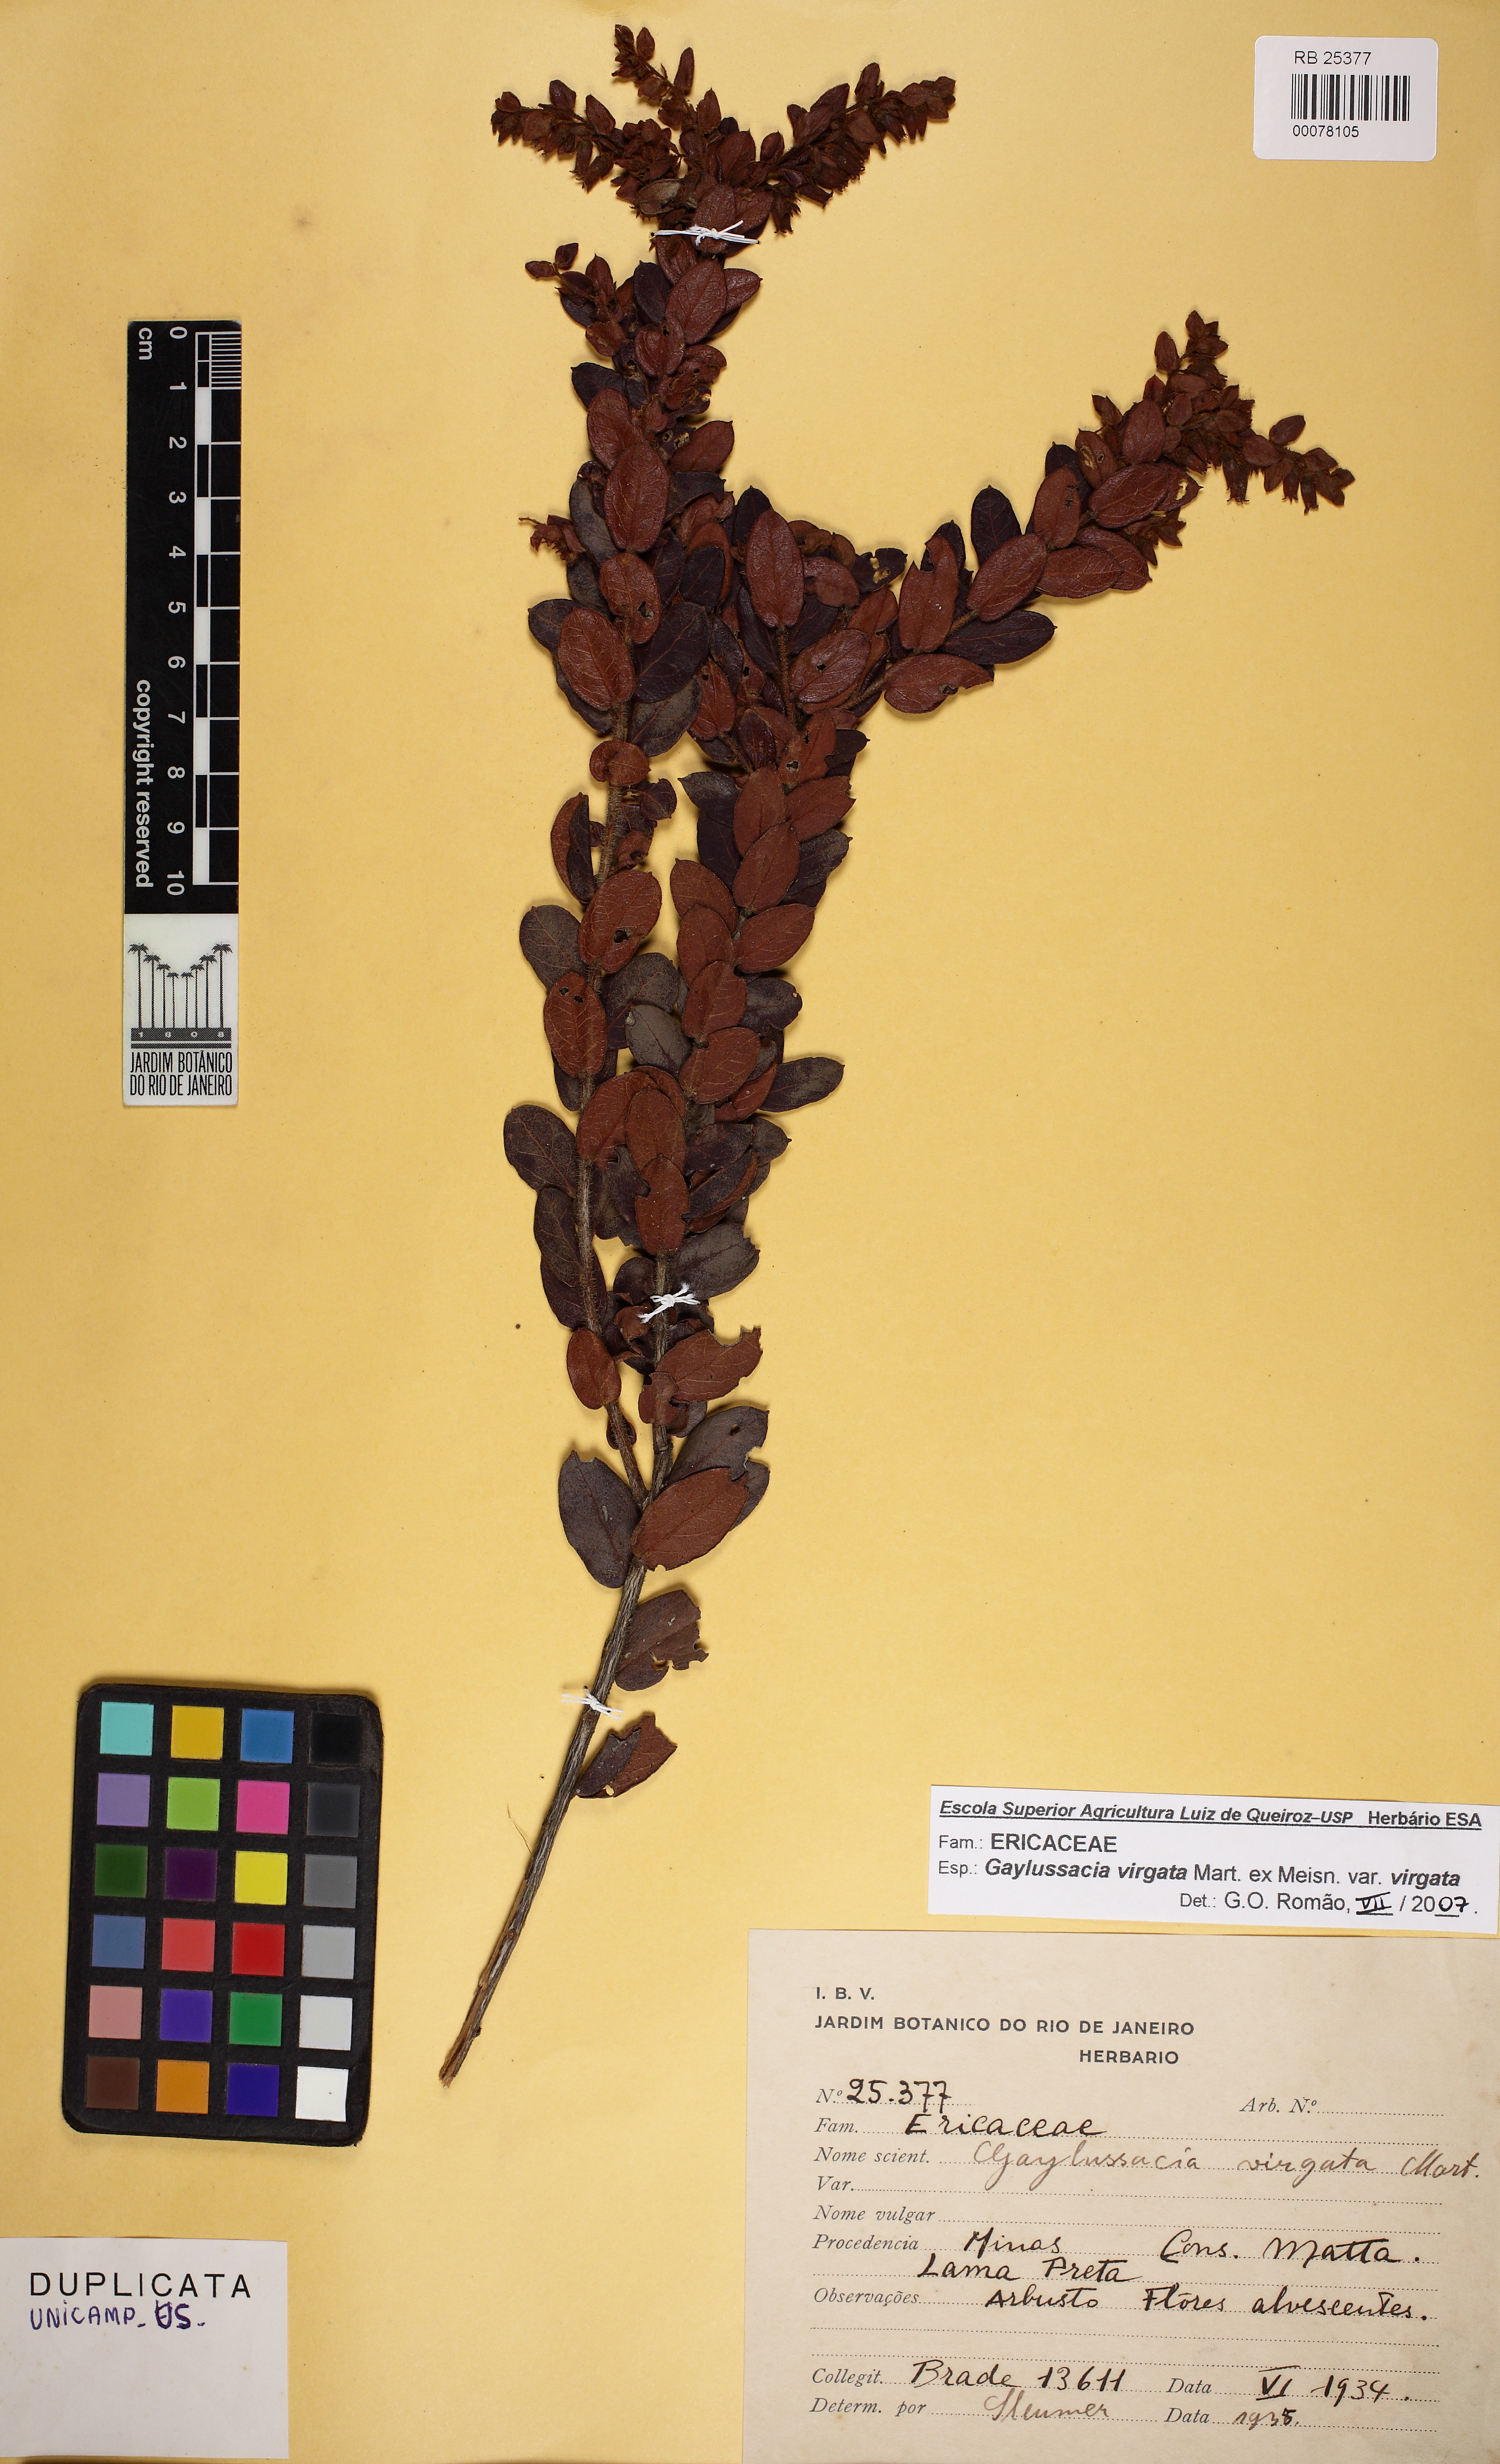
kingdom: Plantae
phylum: Tracheophyta
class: Magnoliopsida
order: Ericales
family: Ericaceae
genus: Gaylussacia
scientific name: Gaylussacia virgata
